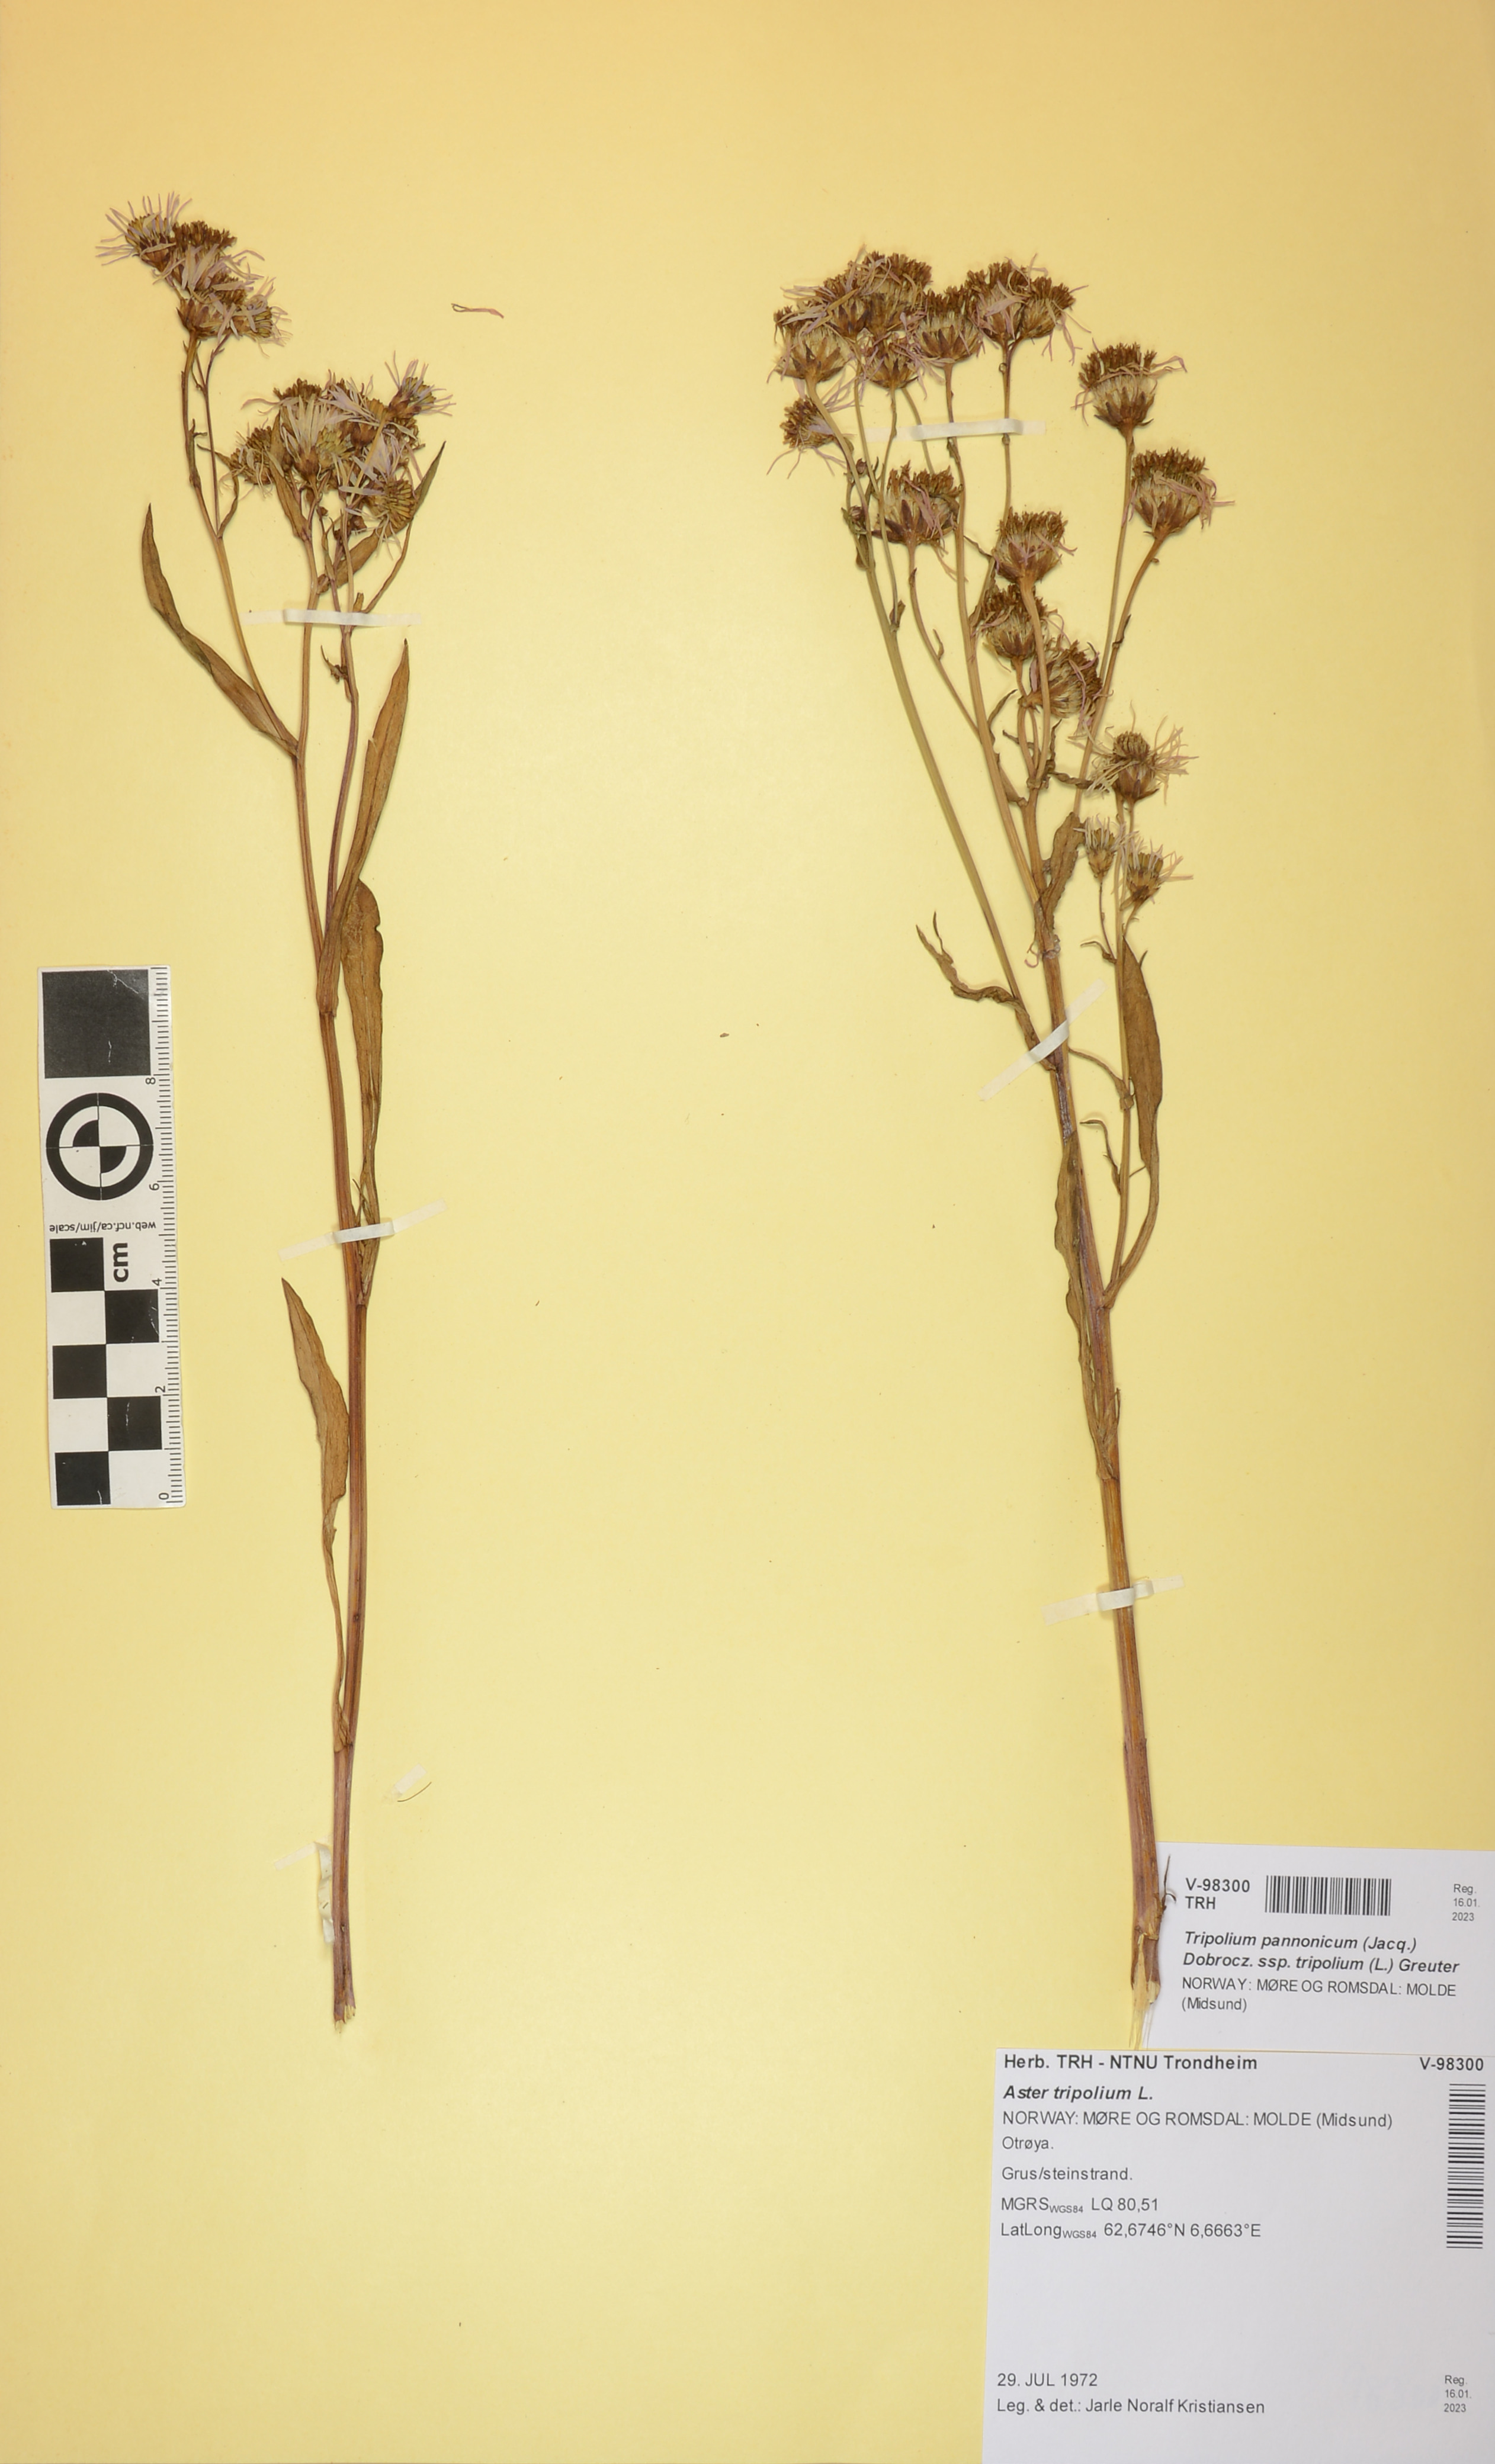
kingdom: Plantae
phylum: Tracheophyta
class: Magnoliopsida
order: Asterales
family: Asteraceae
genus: Tripolium
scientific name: Tripolium pannonicum
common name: Sea aster
